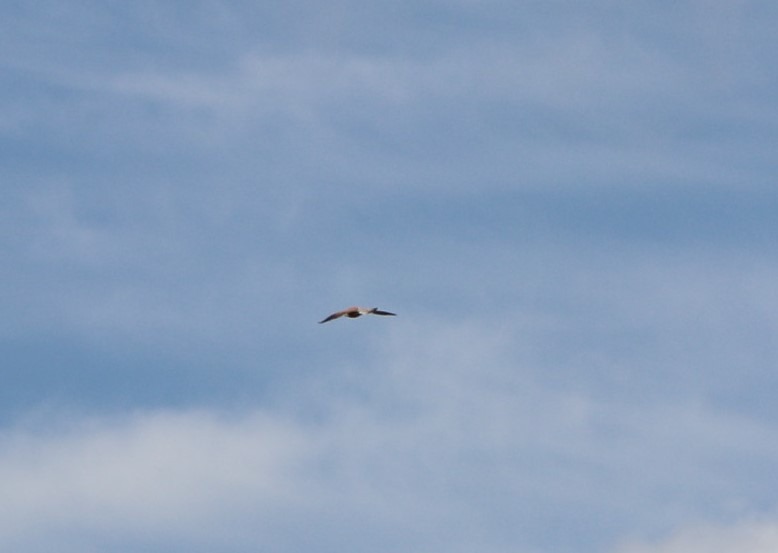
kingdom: Animalia
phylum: Chordata
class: Aves
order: Falconiformes
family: Falconidae
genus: Falco
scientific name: Falco tinnunculus
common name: Tårnfalk
